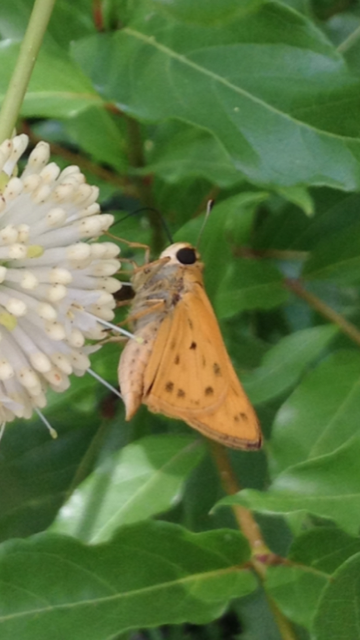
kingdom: Animalia
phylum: Arthropoda
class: Insecta
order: Lepidoptera
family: Hesperiidae
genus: Hylephila
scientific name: Hylephila phyleus
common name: Fiery Skipper
